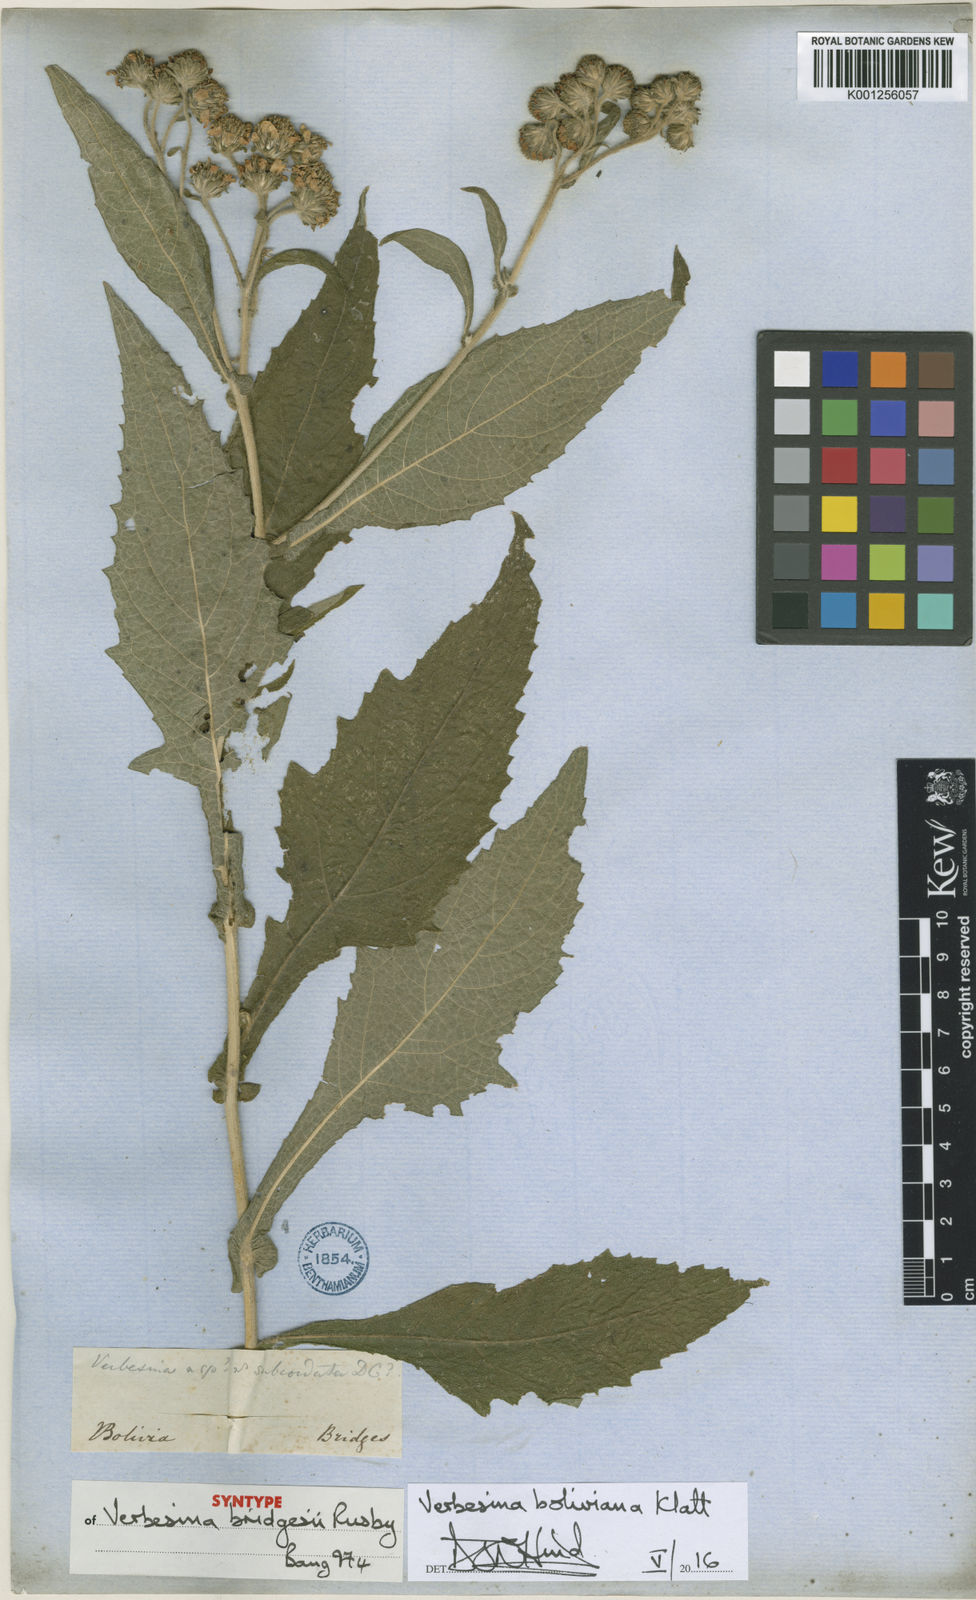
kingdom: Plantae
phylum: Tracheophyta
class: Magnoliopsida
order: Asterales
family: Asteraceae
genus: Verbesina
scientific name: Verbesina boliviana
